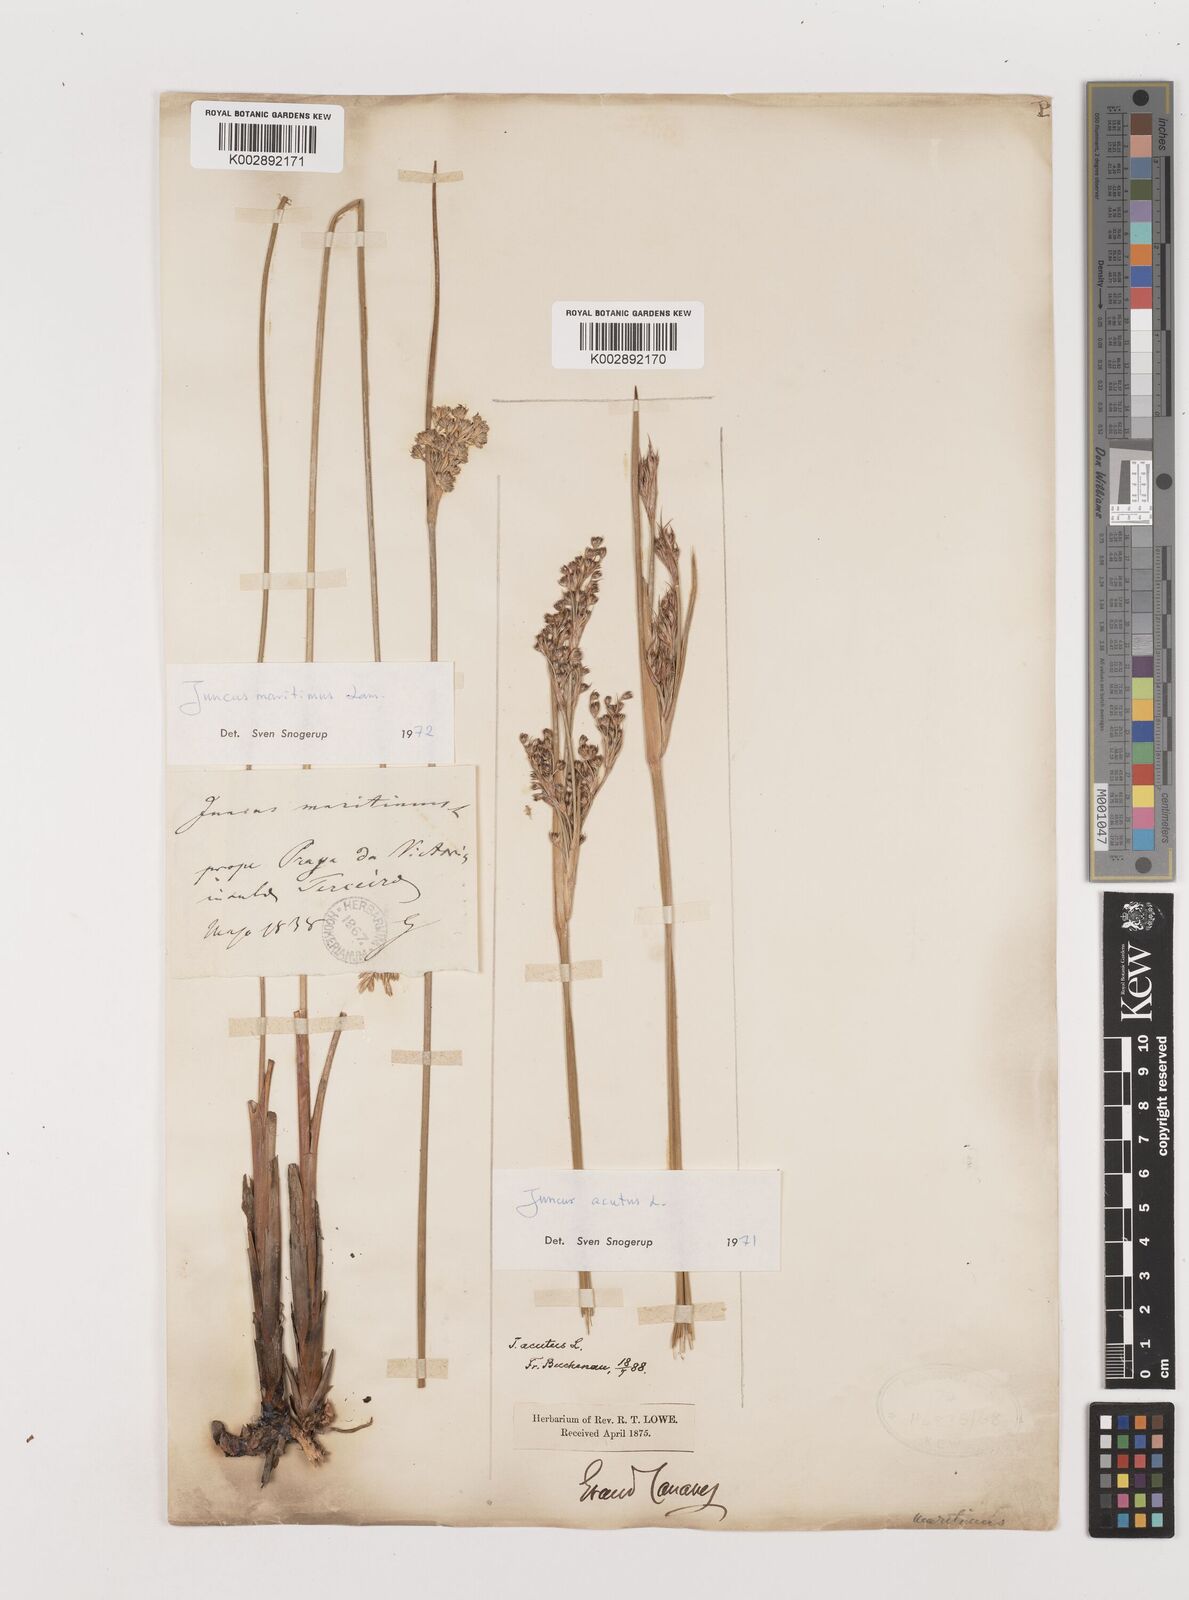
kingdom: Plantae
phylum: Tracheophyta
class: Liliopsida
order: Poales
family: Juncaceae
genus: Juncus
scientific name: Juncus maritimus
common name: Sea rush
